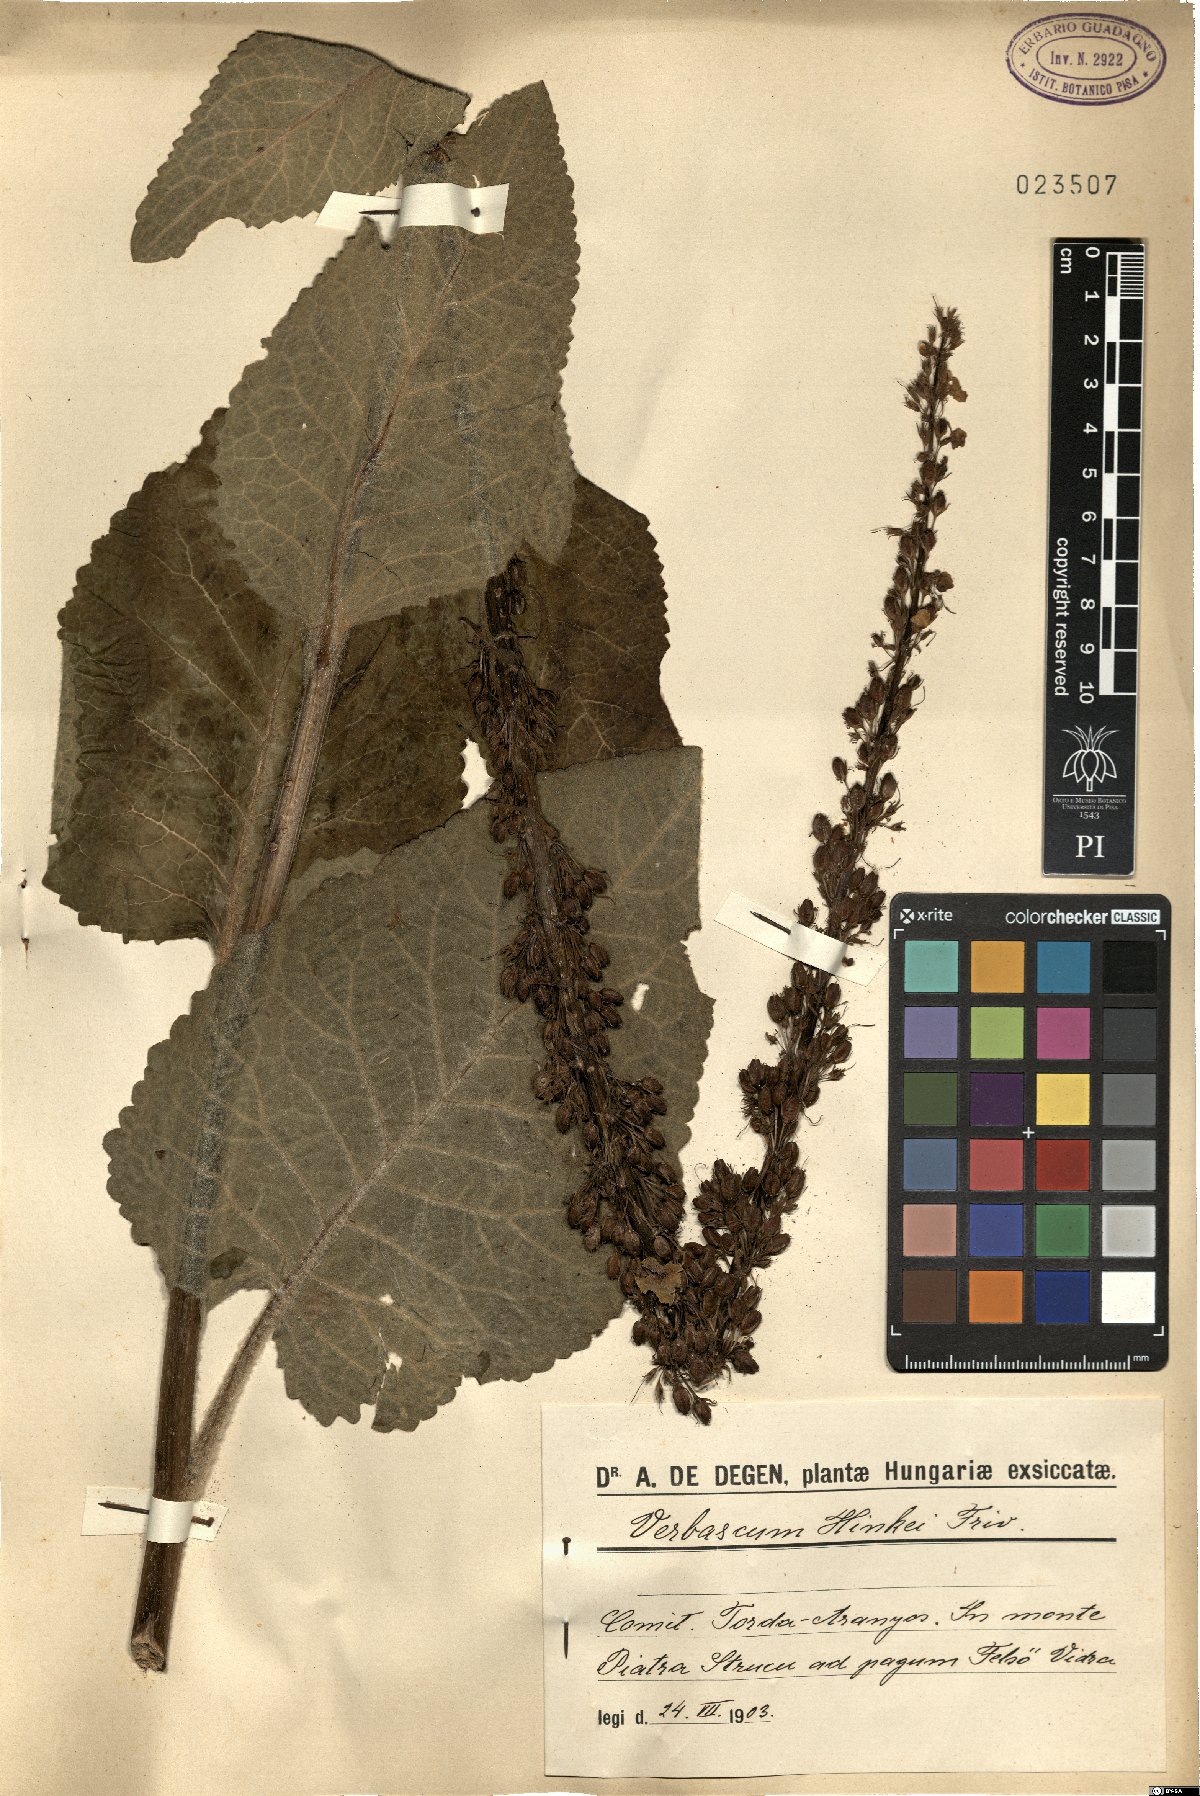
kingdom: Plantae
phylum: Tracheophyta
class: Magnoliopsida
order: Lamiales
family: Scrophulariaceae
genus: Verbascum
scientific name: Verbascum alpinum
